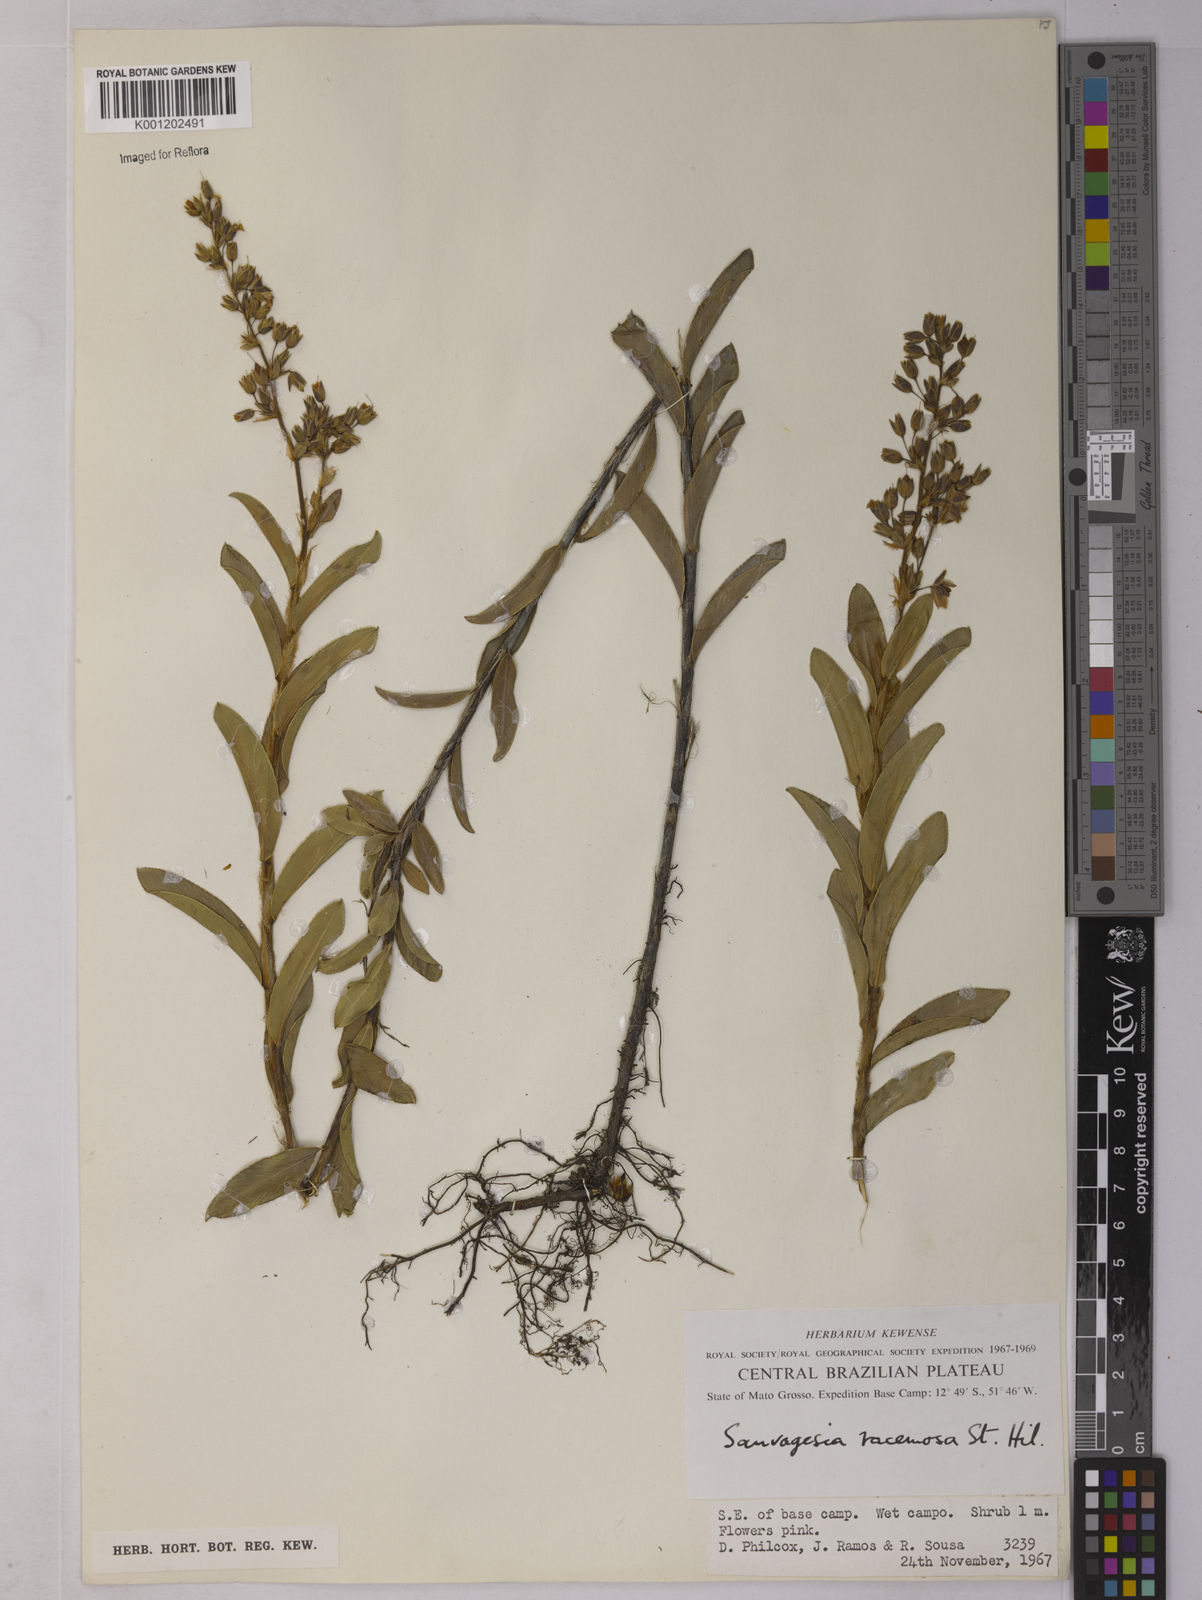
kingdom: Plantae
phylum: Tracheophyta
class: Magnoliopsida
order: Malpighiales
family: Ochnaceae
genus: Sauvagesia
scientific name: Sauvagesia racemosa
